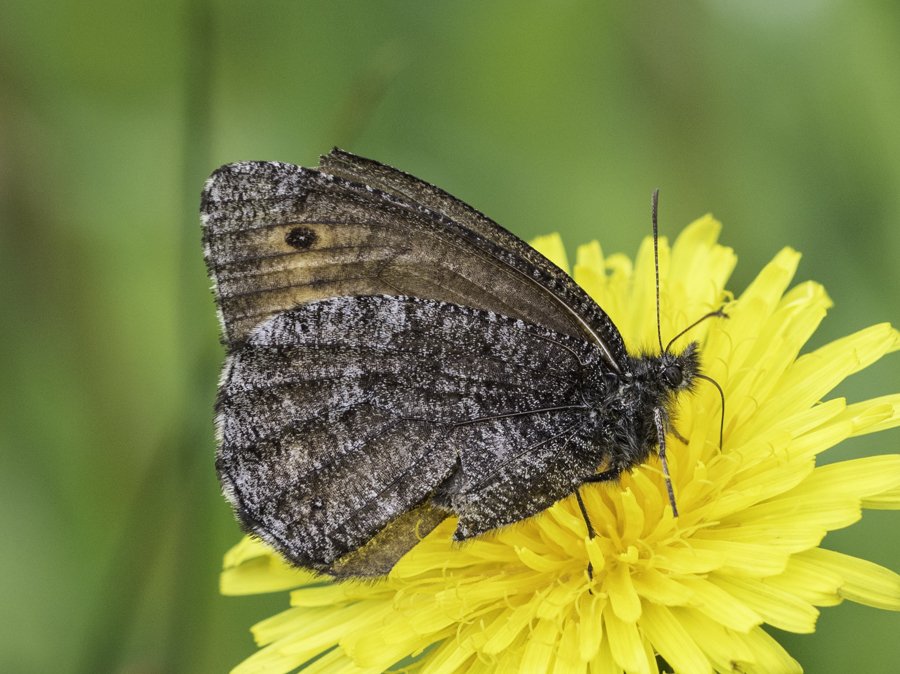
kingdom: Animalia
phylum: Arthropoda
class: Insecta
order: Lepidoptera
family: Nymphalidae
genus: Oeneis
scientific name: Oeneis jutta
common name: Jutta Arctic
